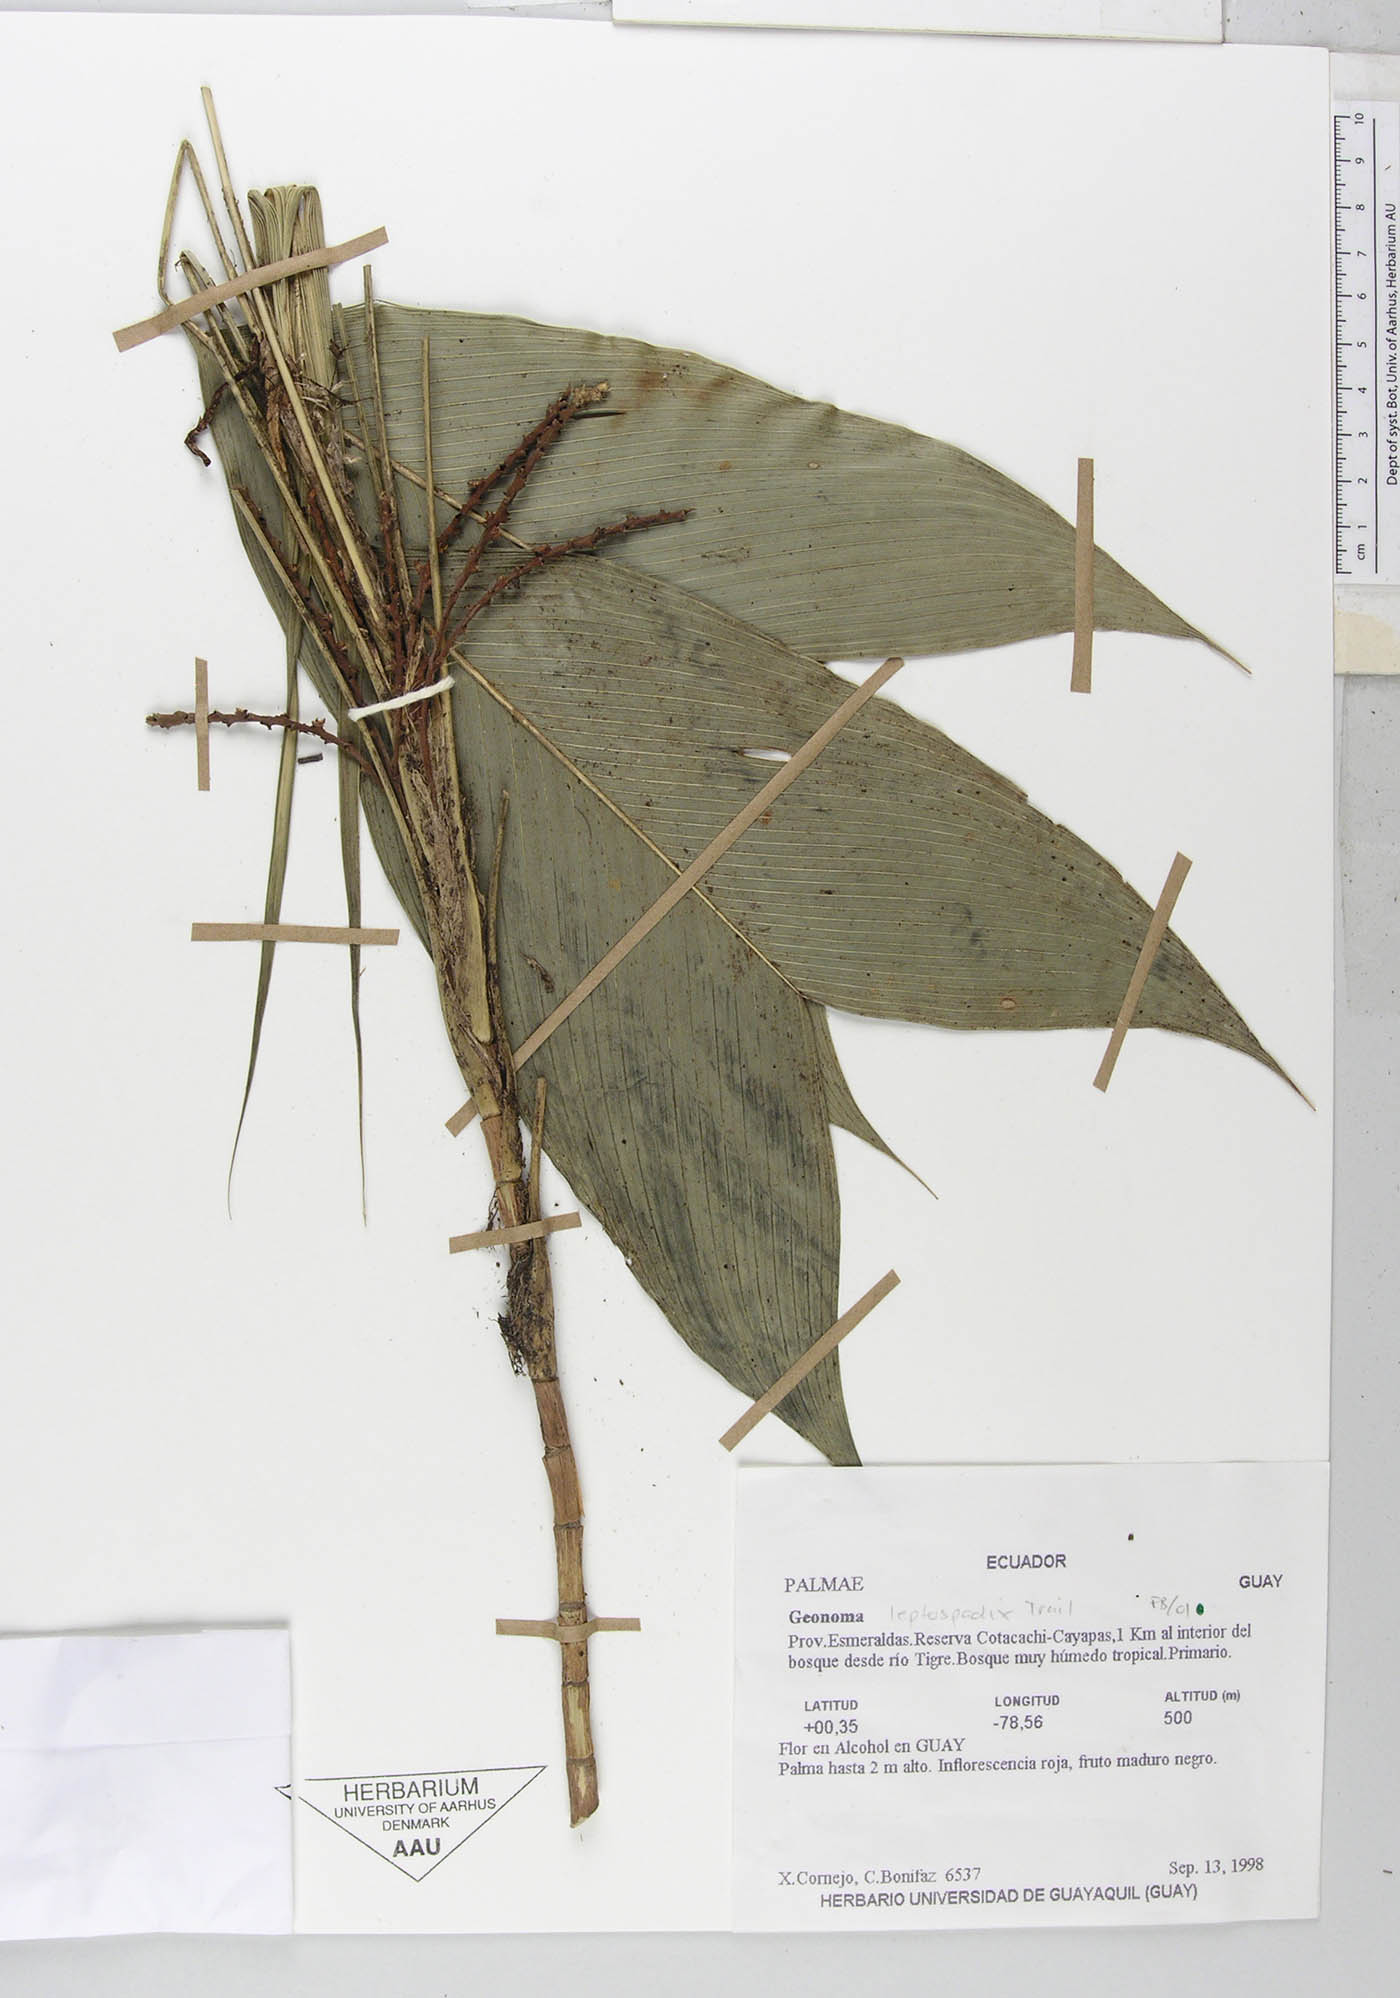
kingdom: Plantae
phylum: Tracheophyta
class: Liliopsida
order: Arecales
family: Arecaceae
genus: Geonoma
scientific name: Geonoma lanata
